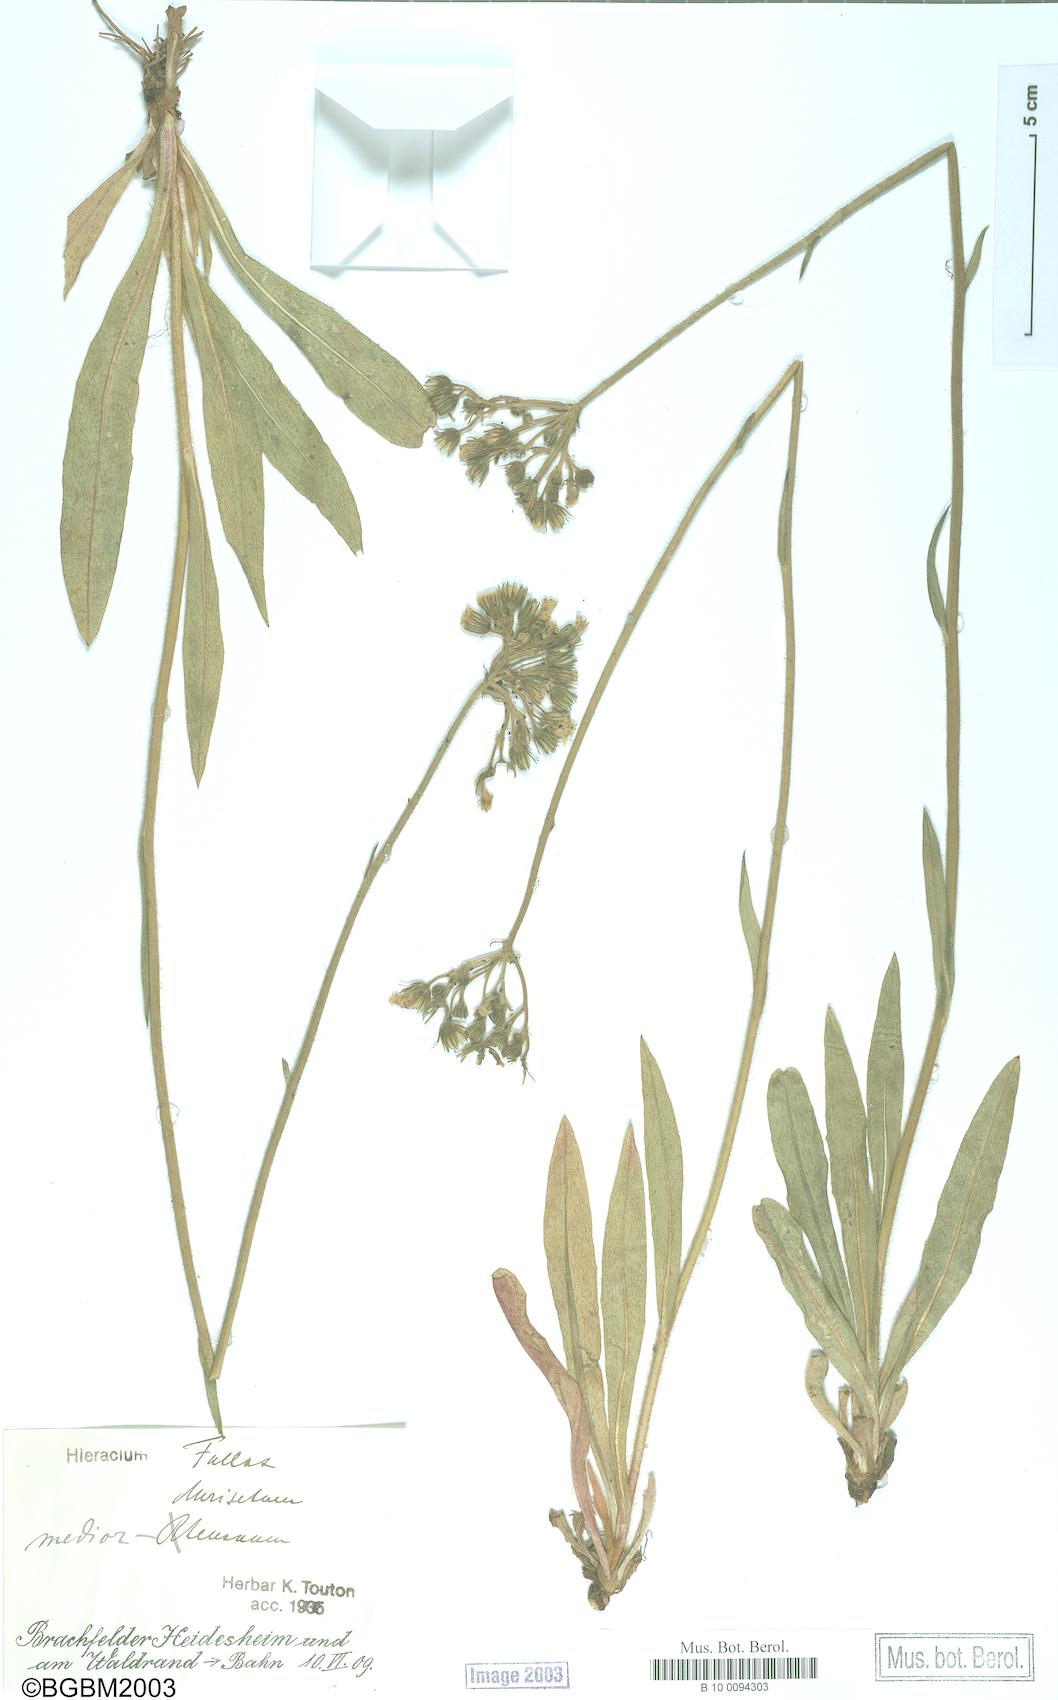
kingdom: Plantae
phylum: Tracheophyta
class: Magnoliopsida
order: Asterales
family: Asteraceae
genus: Hieracium
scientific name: Hieracium fallax
